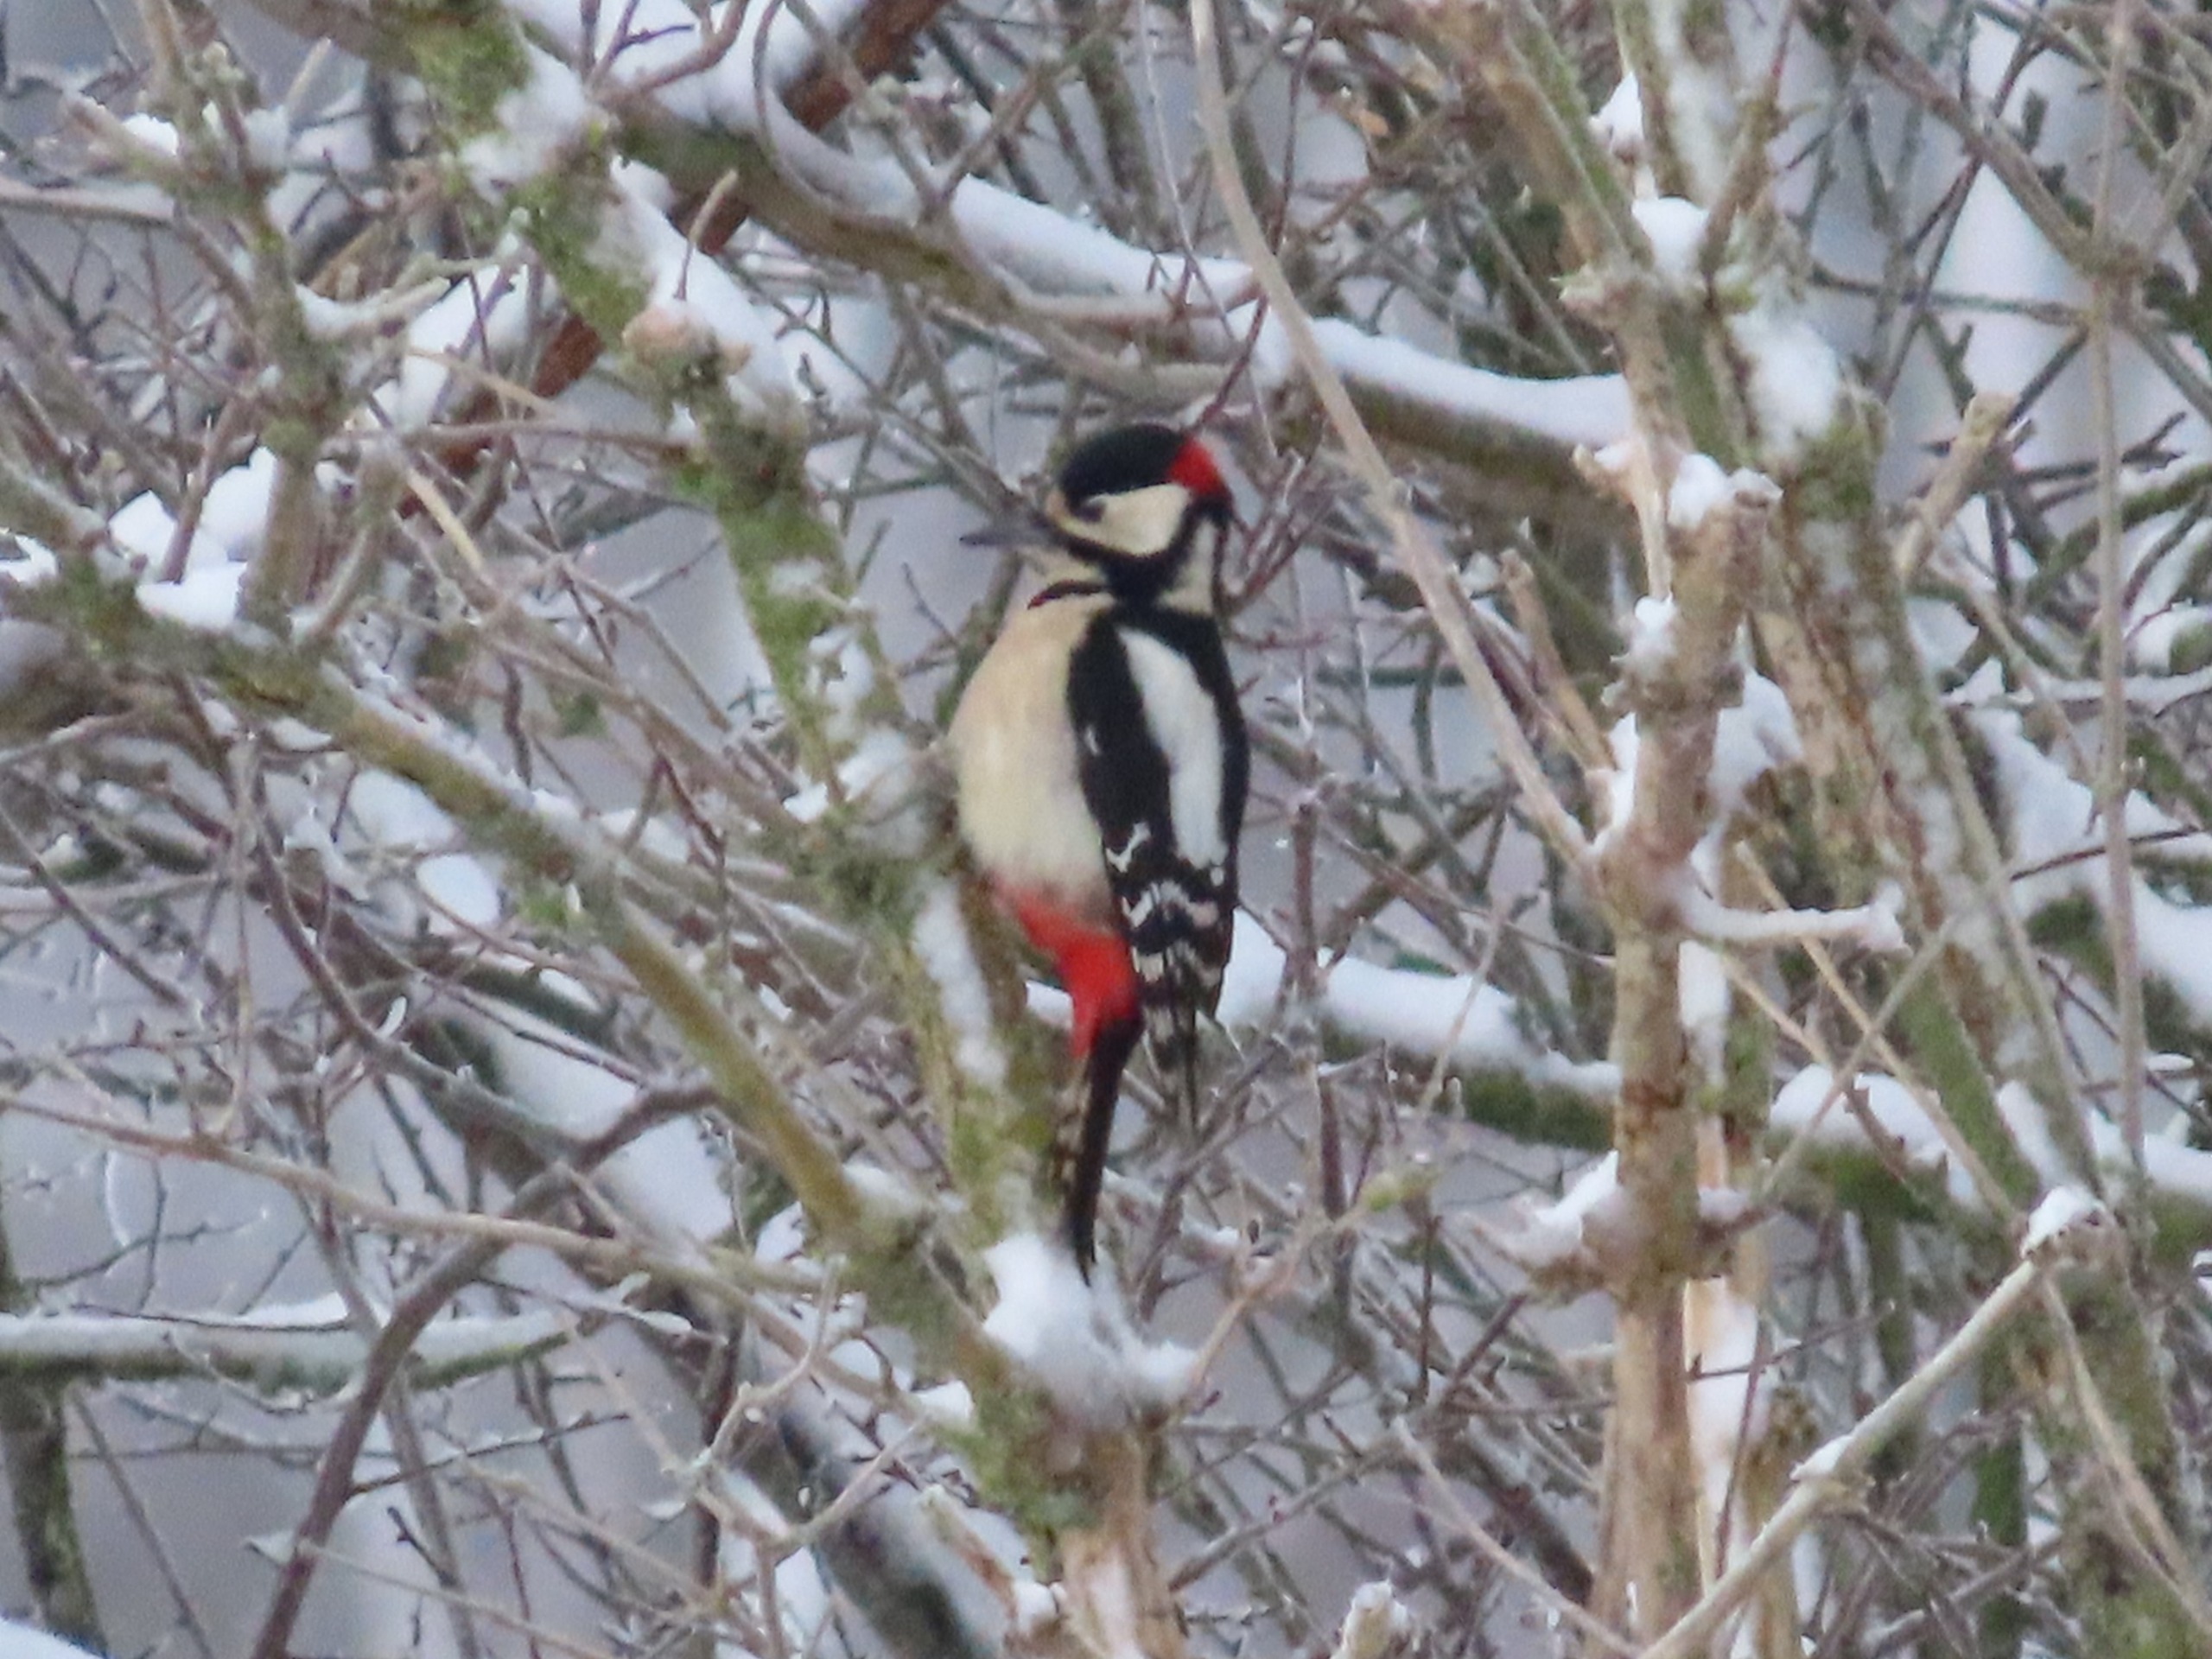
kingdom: Animalia
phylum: Chordata
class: Aves
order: Piciformes
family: Picidae
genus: Dendrocopos
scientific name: Dendrocopos major
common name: Stor flagspætte
